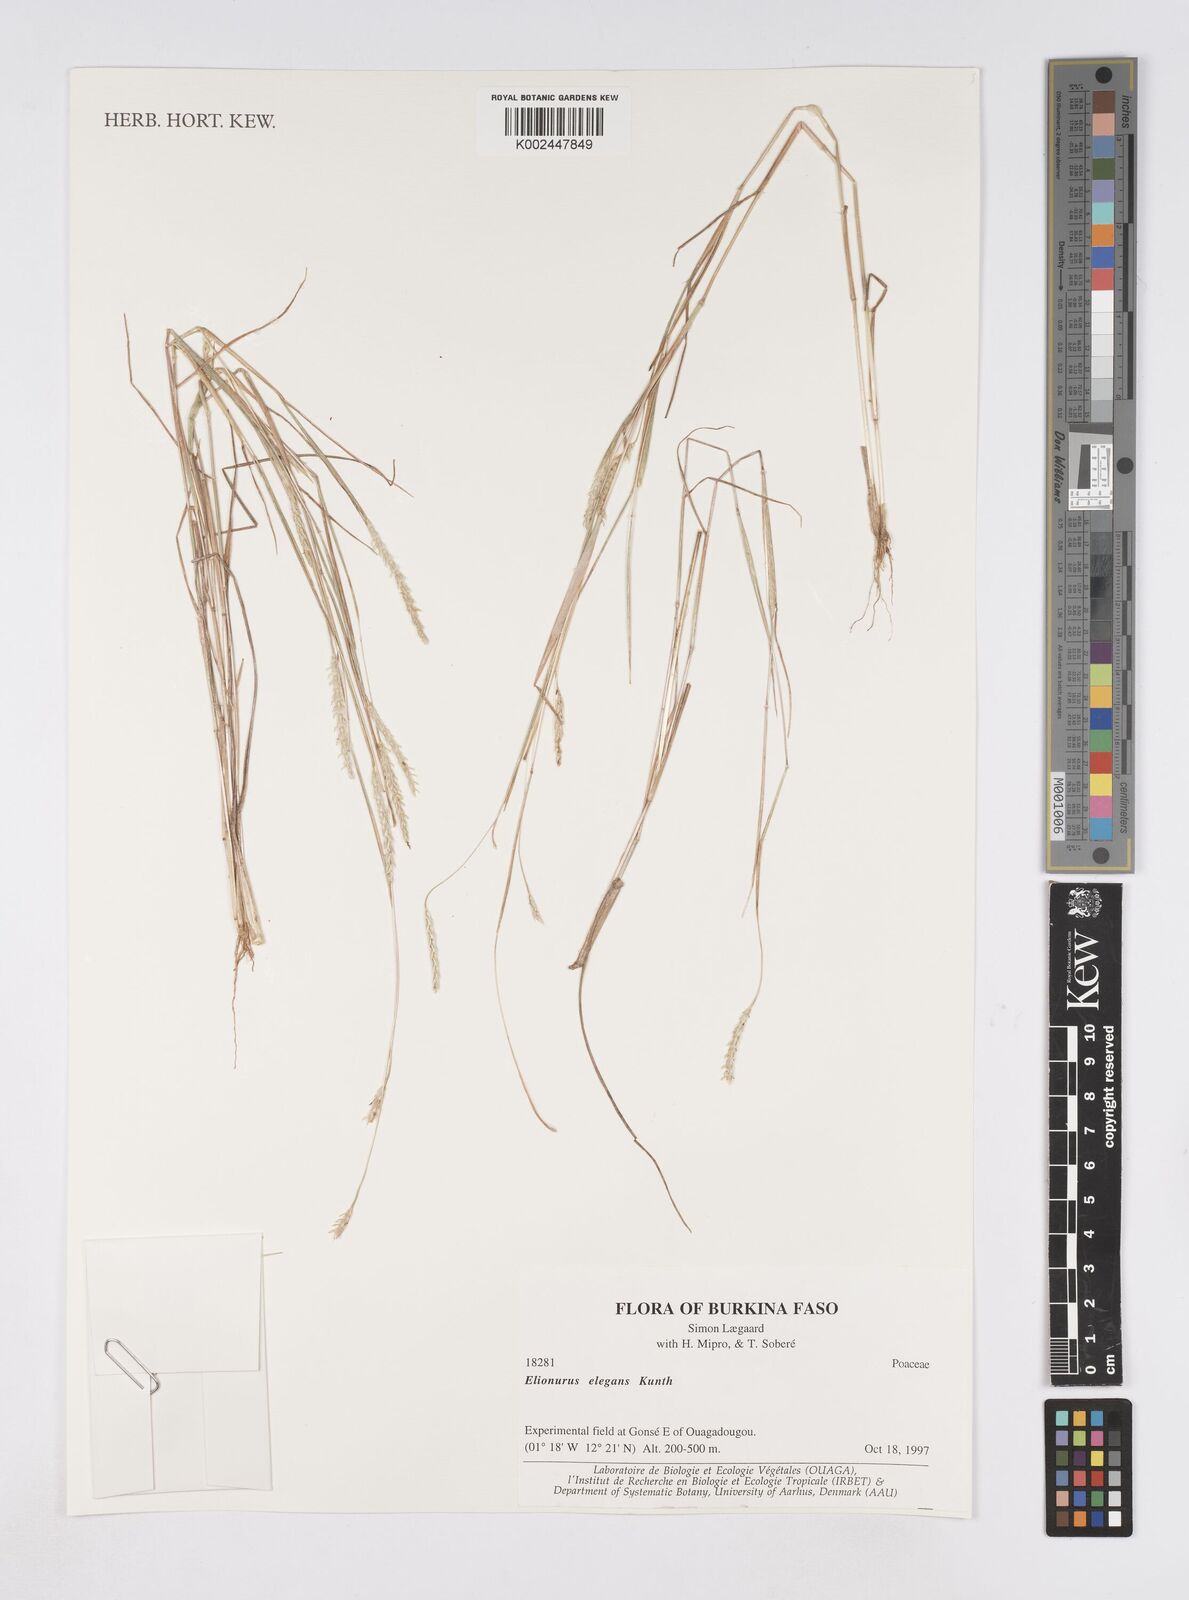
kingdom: Plantae
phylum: Tracheophyta
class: Liliopsida
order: Poales
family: Poaceae
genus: Elionurus
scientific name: Elionurus elegans
